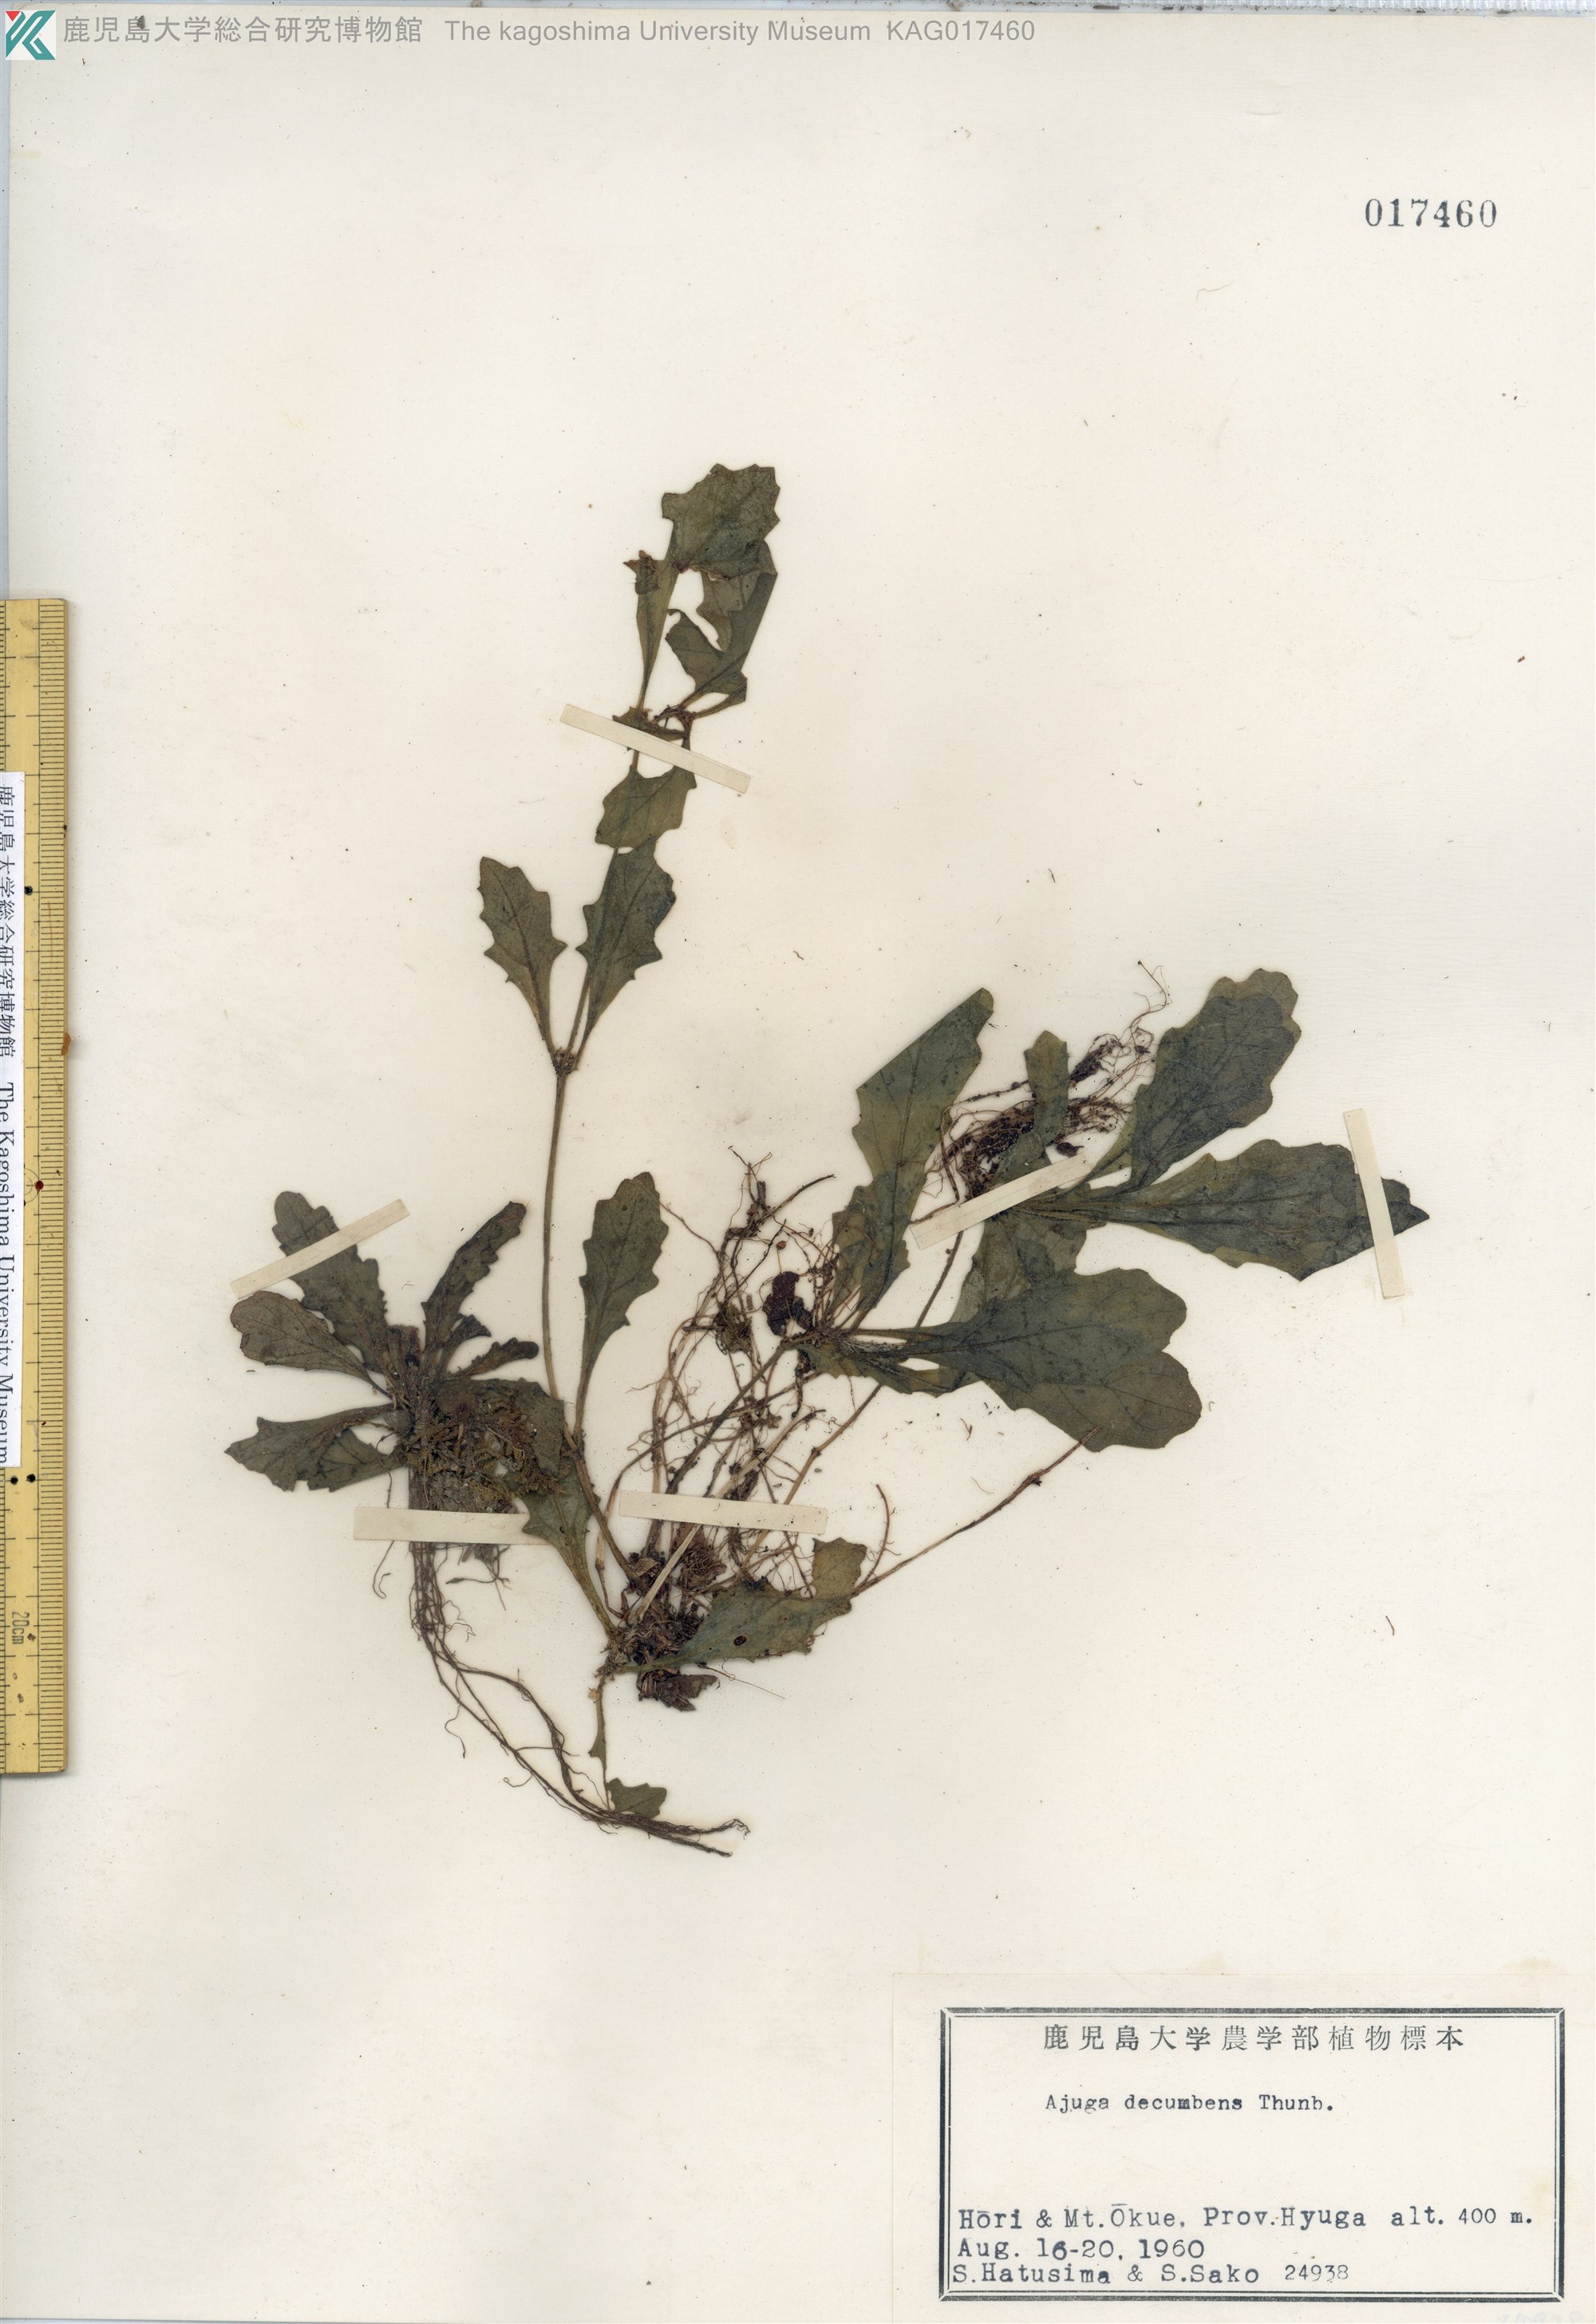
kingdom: Plantae
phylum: Tracheophyta
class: Magnoliopsida
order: Lamiales
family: Lamiaceae
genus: Ajuga
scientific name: Ajuga decumbens
